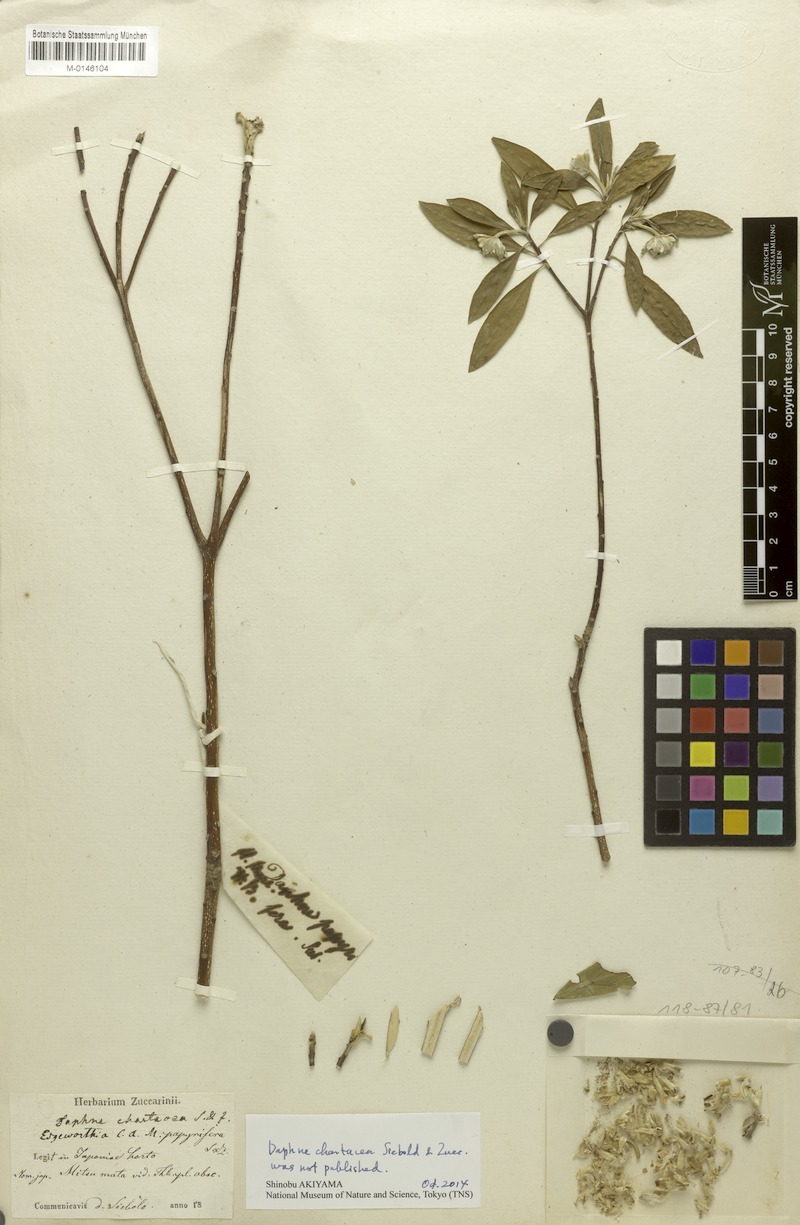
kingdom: Plantae
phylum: Tracheophyta
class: Magnoliopsida
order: Malvales
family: Thymelaeaceae
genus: Edgeworthia
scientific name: Edgeworthia chrysantha
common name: Oriental paperbush
